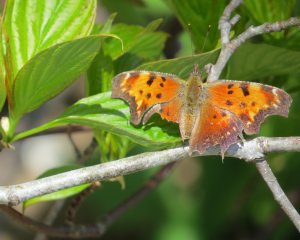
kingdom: Animalia
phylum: Arthropoda
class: Insecta
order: Lepidoptera
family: Nymphalidae
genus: Polygonia
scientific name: Polygonia comma
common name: Eastern Comma
